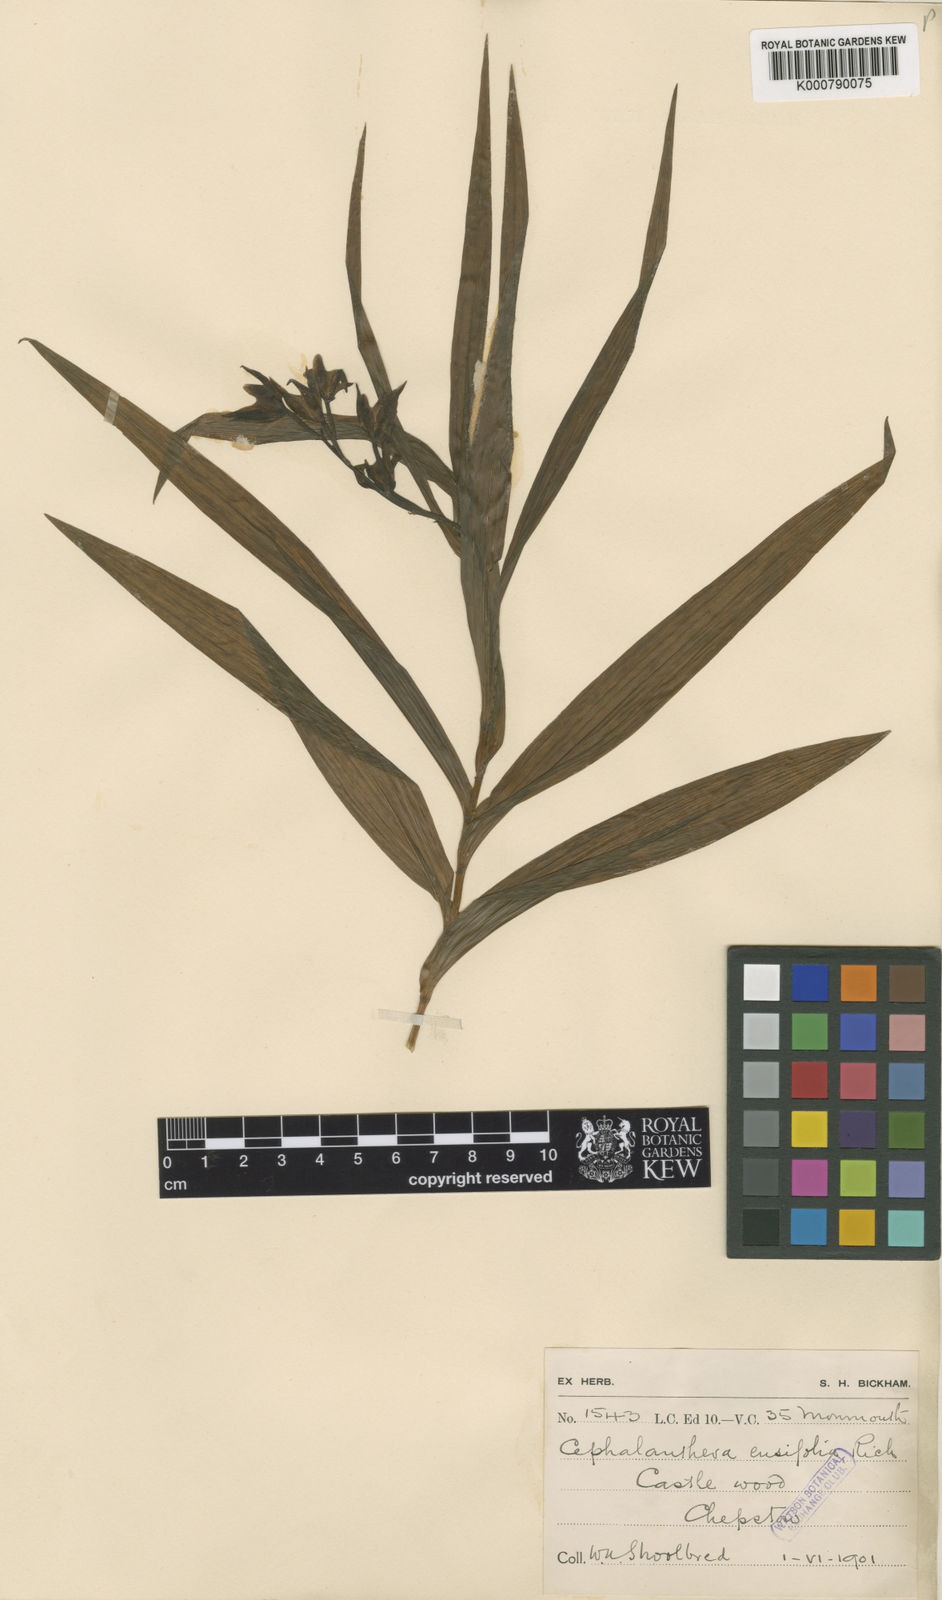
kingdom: Plantae
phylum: Tracheophyta
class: Liliopsida
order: Asparagales
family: Orchidaceae
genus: Cephalanthera
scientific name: Cephalanthera longifolia
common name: Narrow-leaved helleborine
